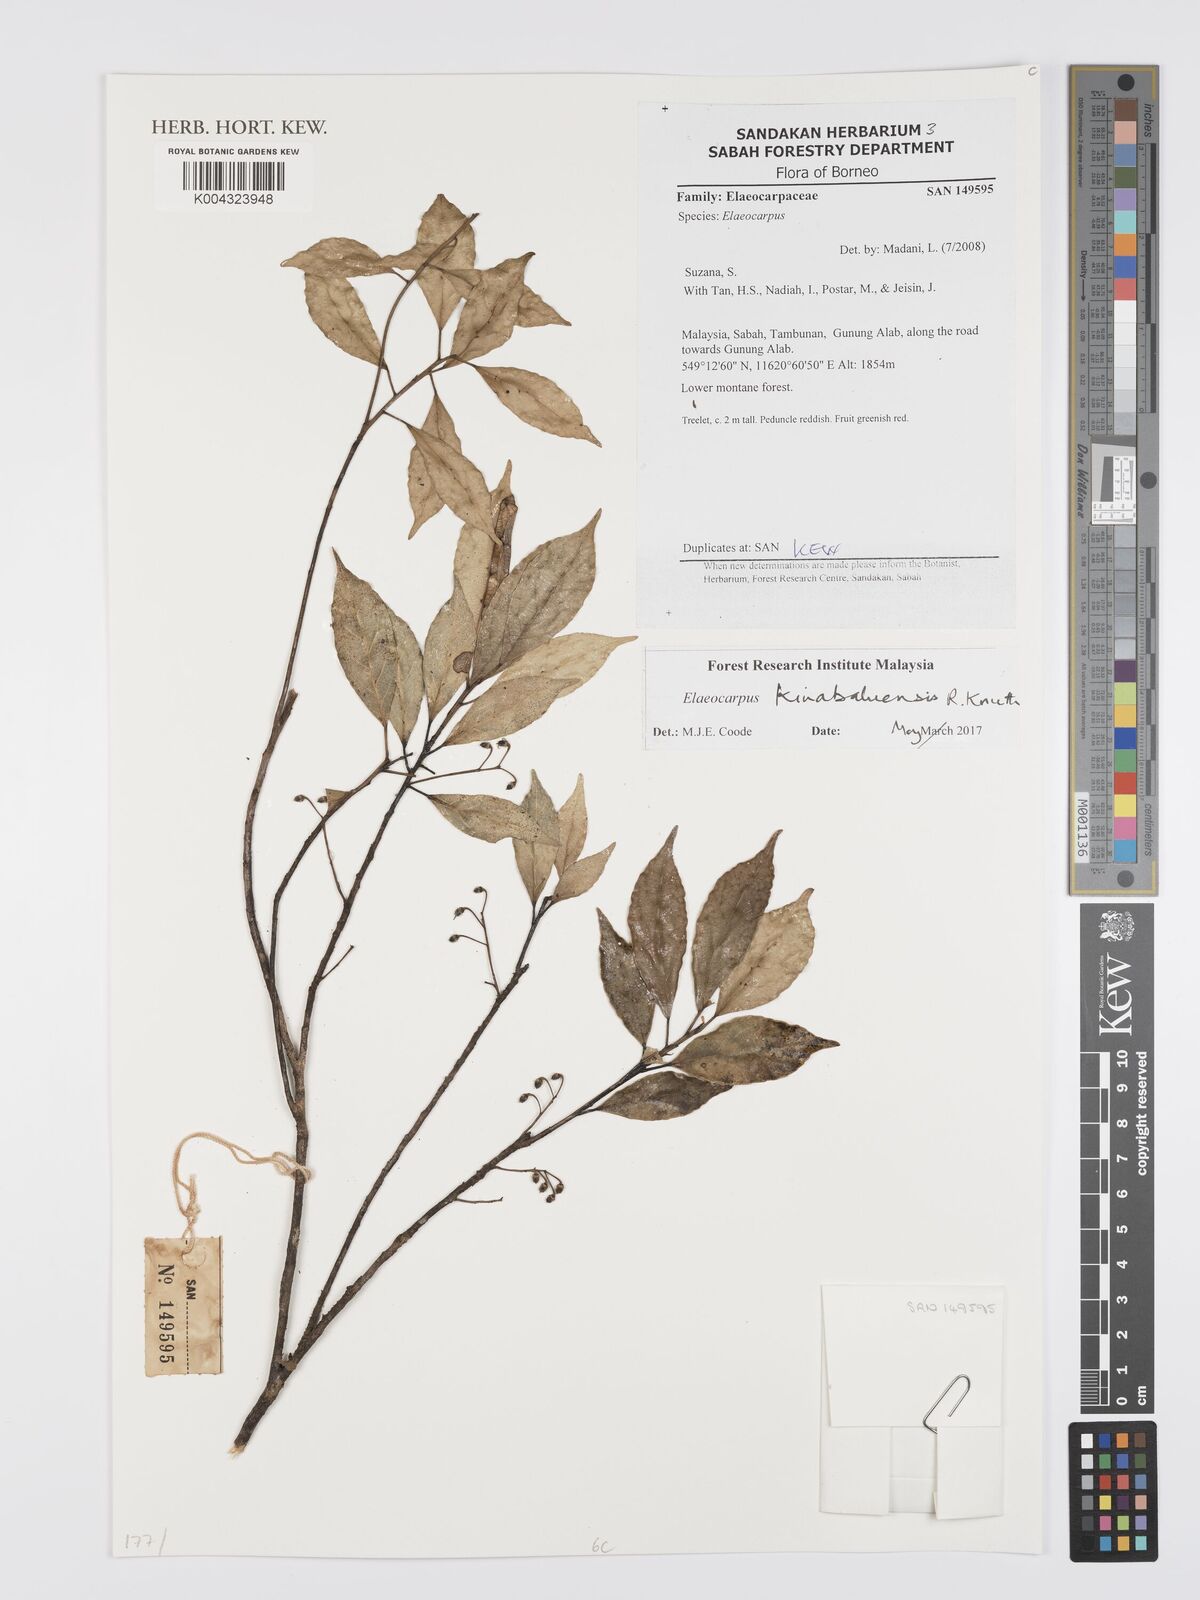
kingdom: Plantae
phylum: Tracheophyta
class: Magnoliopsida
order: Oxalidales
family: Elaeocarpaceae
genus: Elaeocarpus
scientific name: Elaeocarpus kinabaluensis
